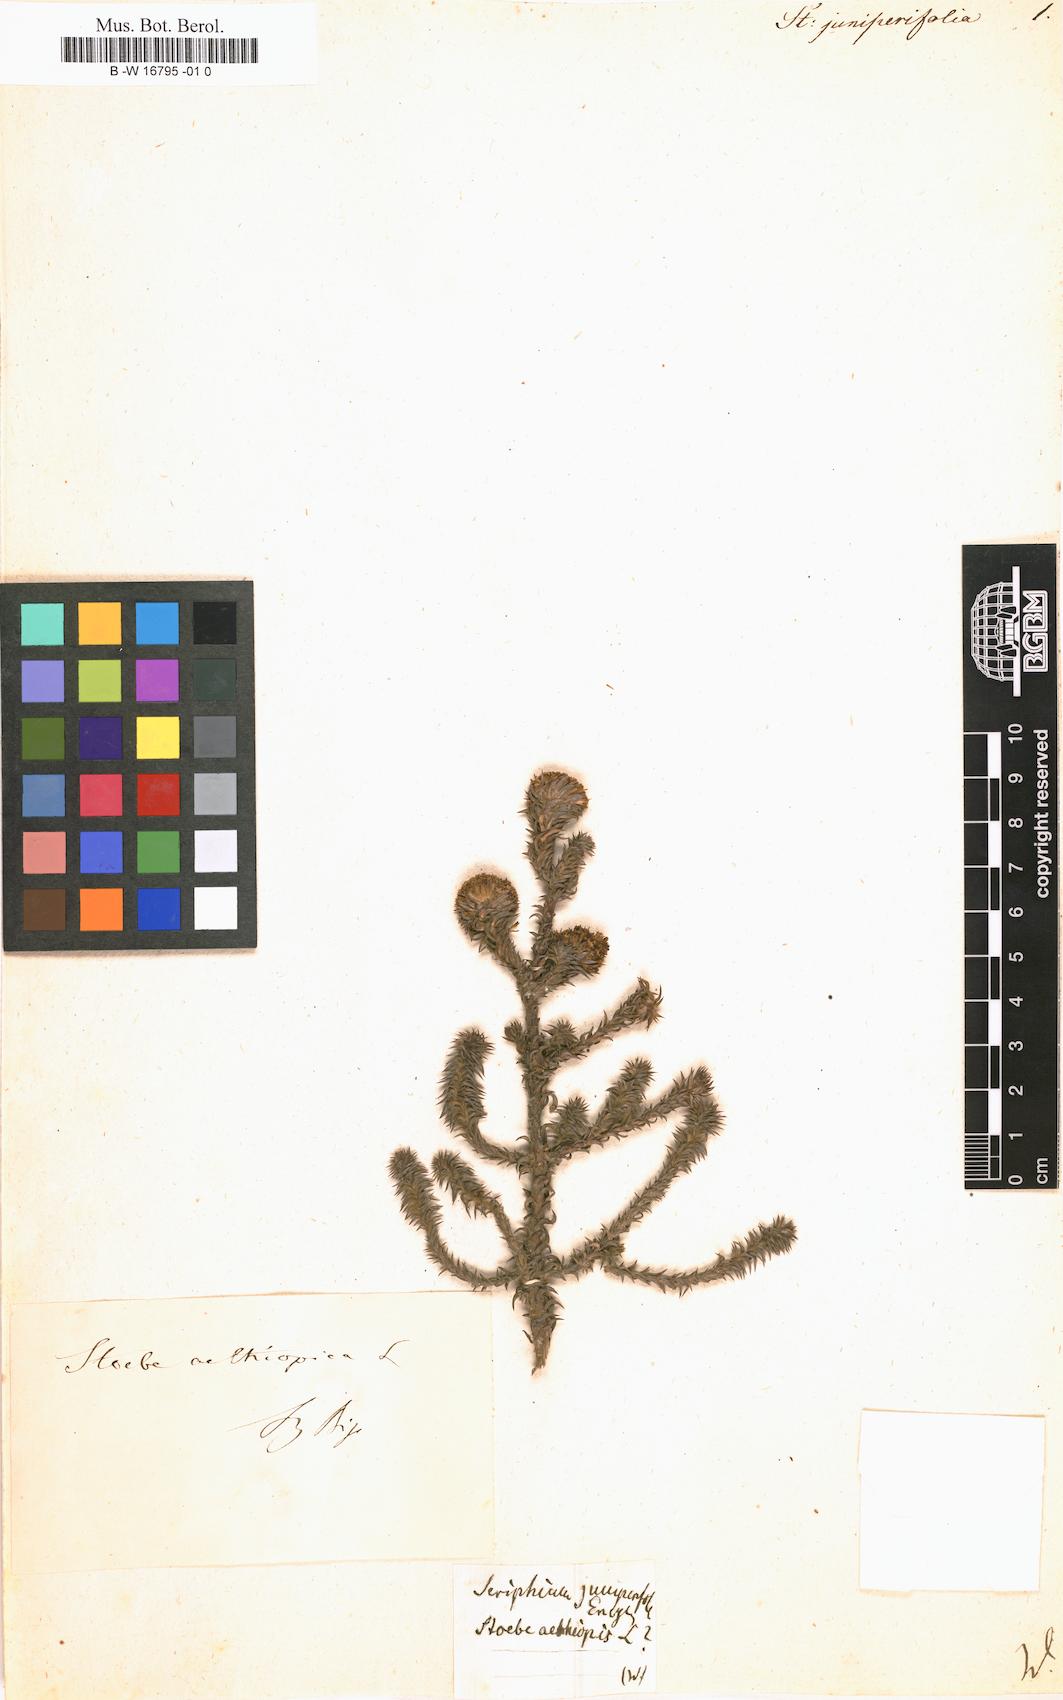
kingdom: Plantae
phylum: Tracheophyta
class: Magnoliopsida
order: Asterales
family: Asteraceae
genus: Stoebe
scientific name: Stoebe
